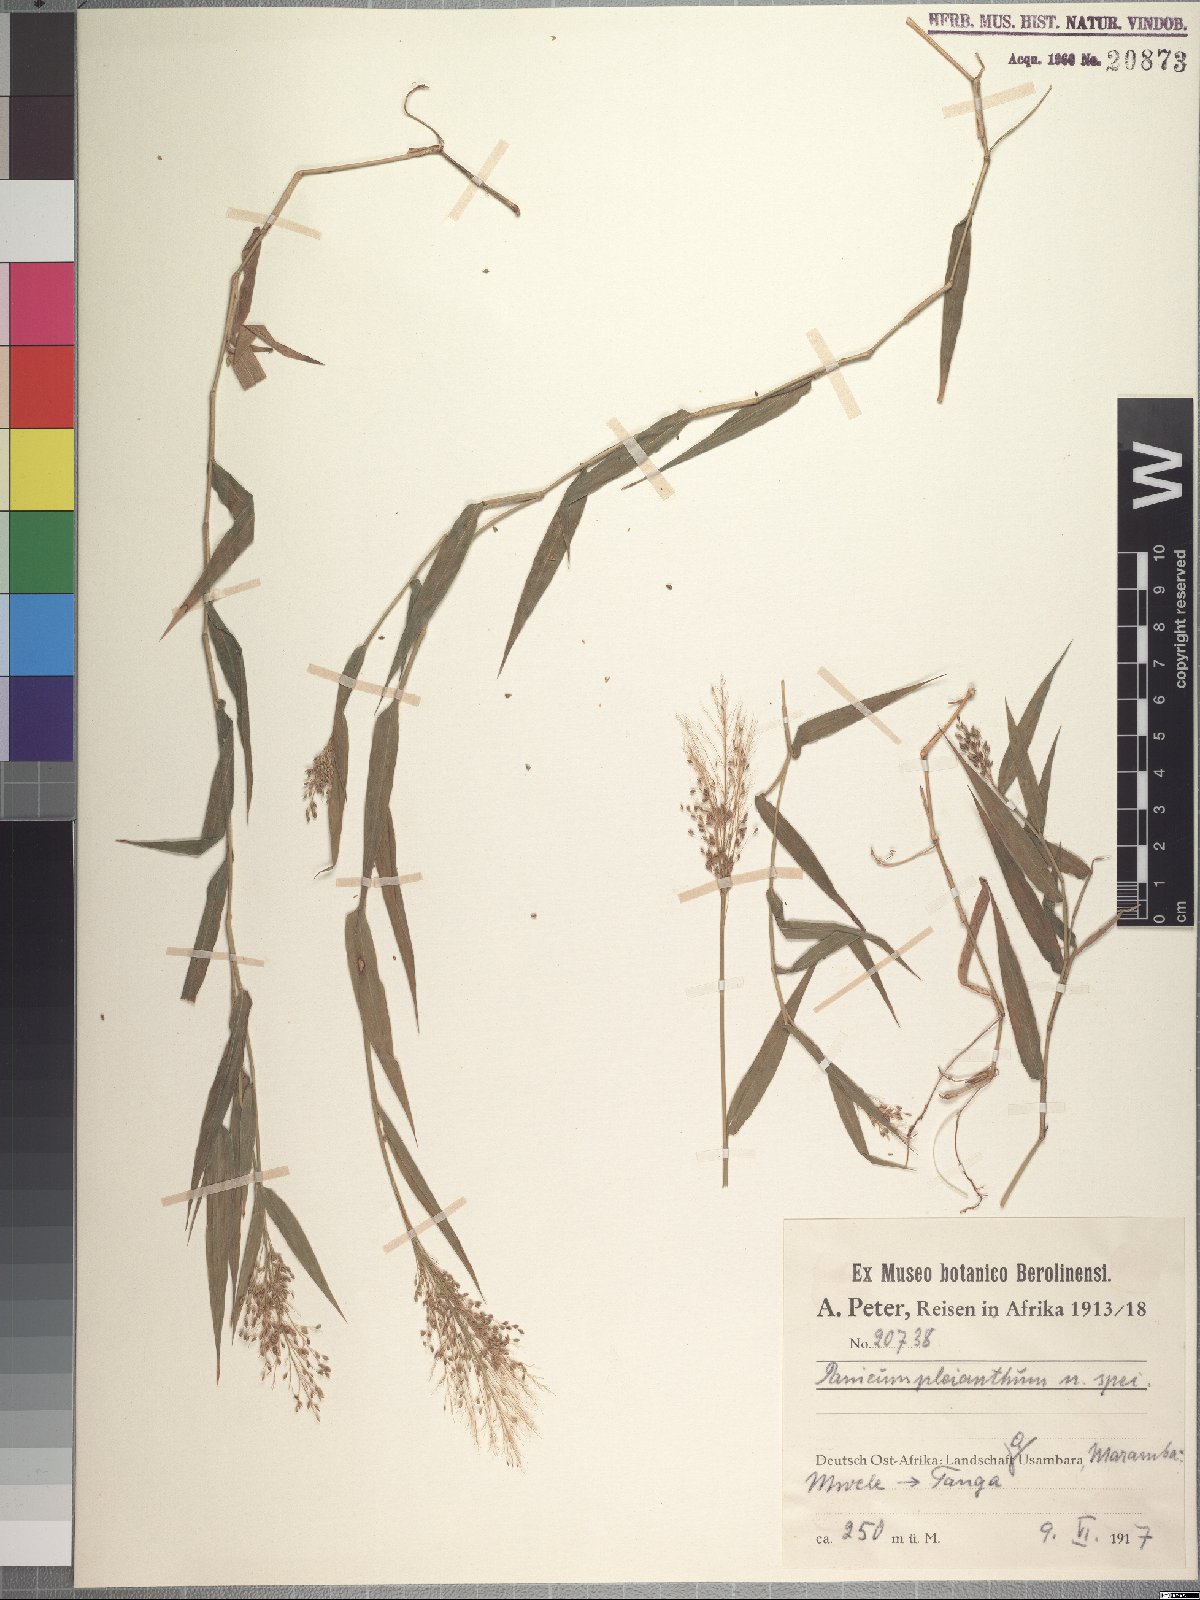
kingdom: Plantae
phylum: Tracheophyta
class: Liliopsida
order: Poales
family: Poaceae
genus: Panicum
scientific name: Panicum pleianthum
